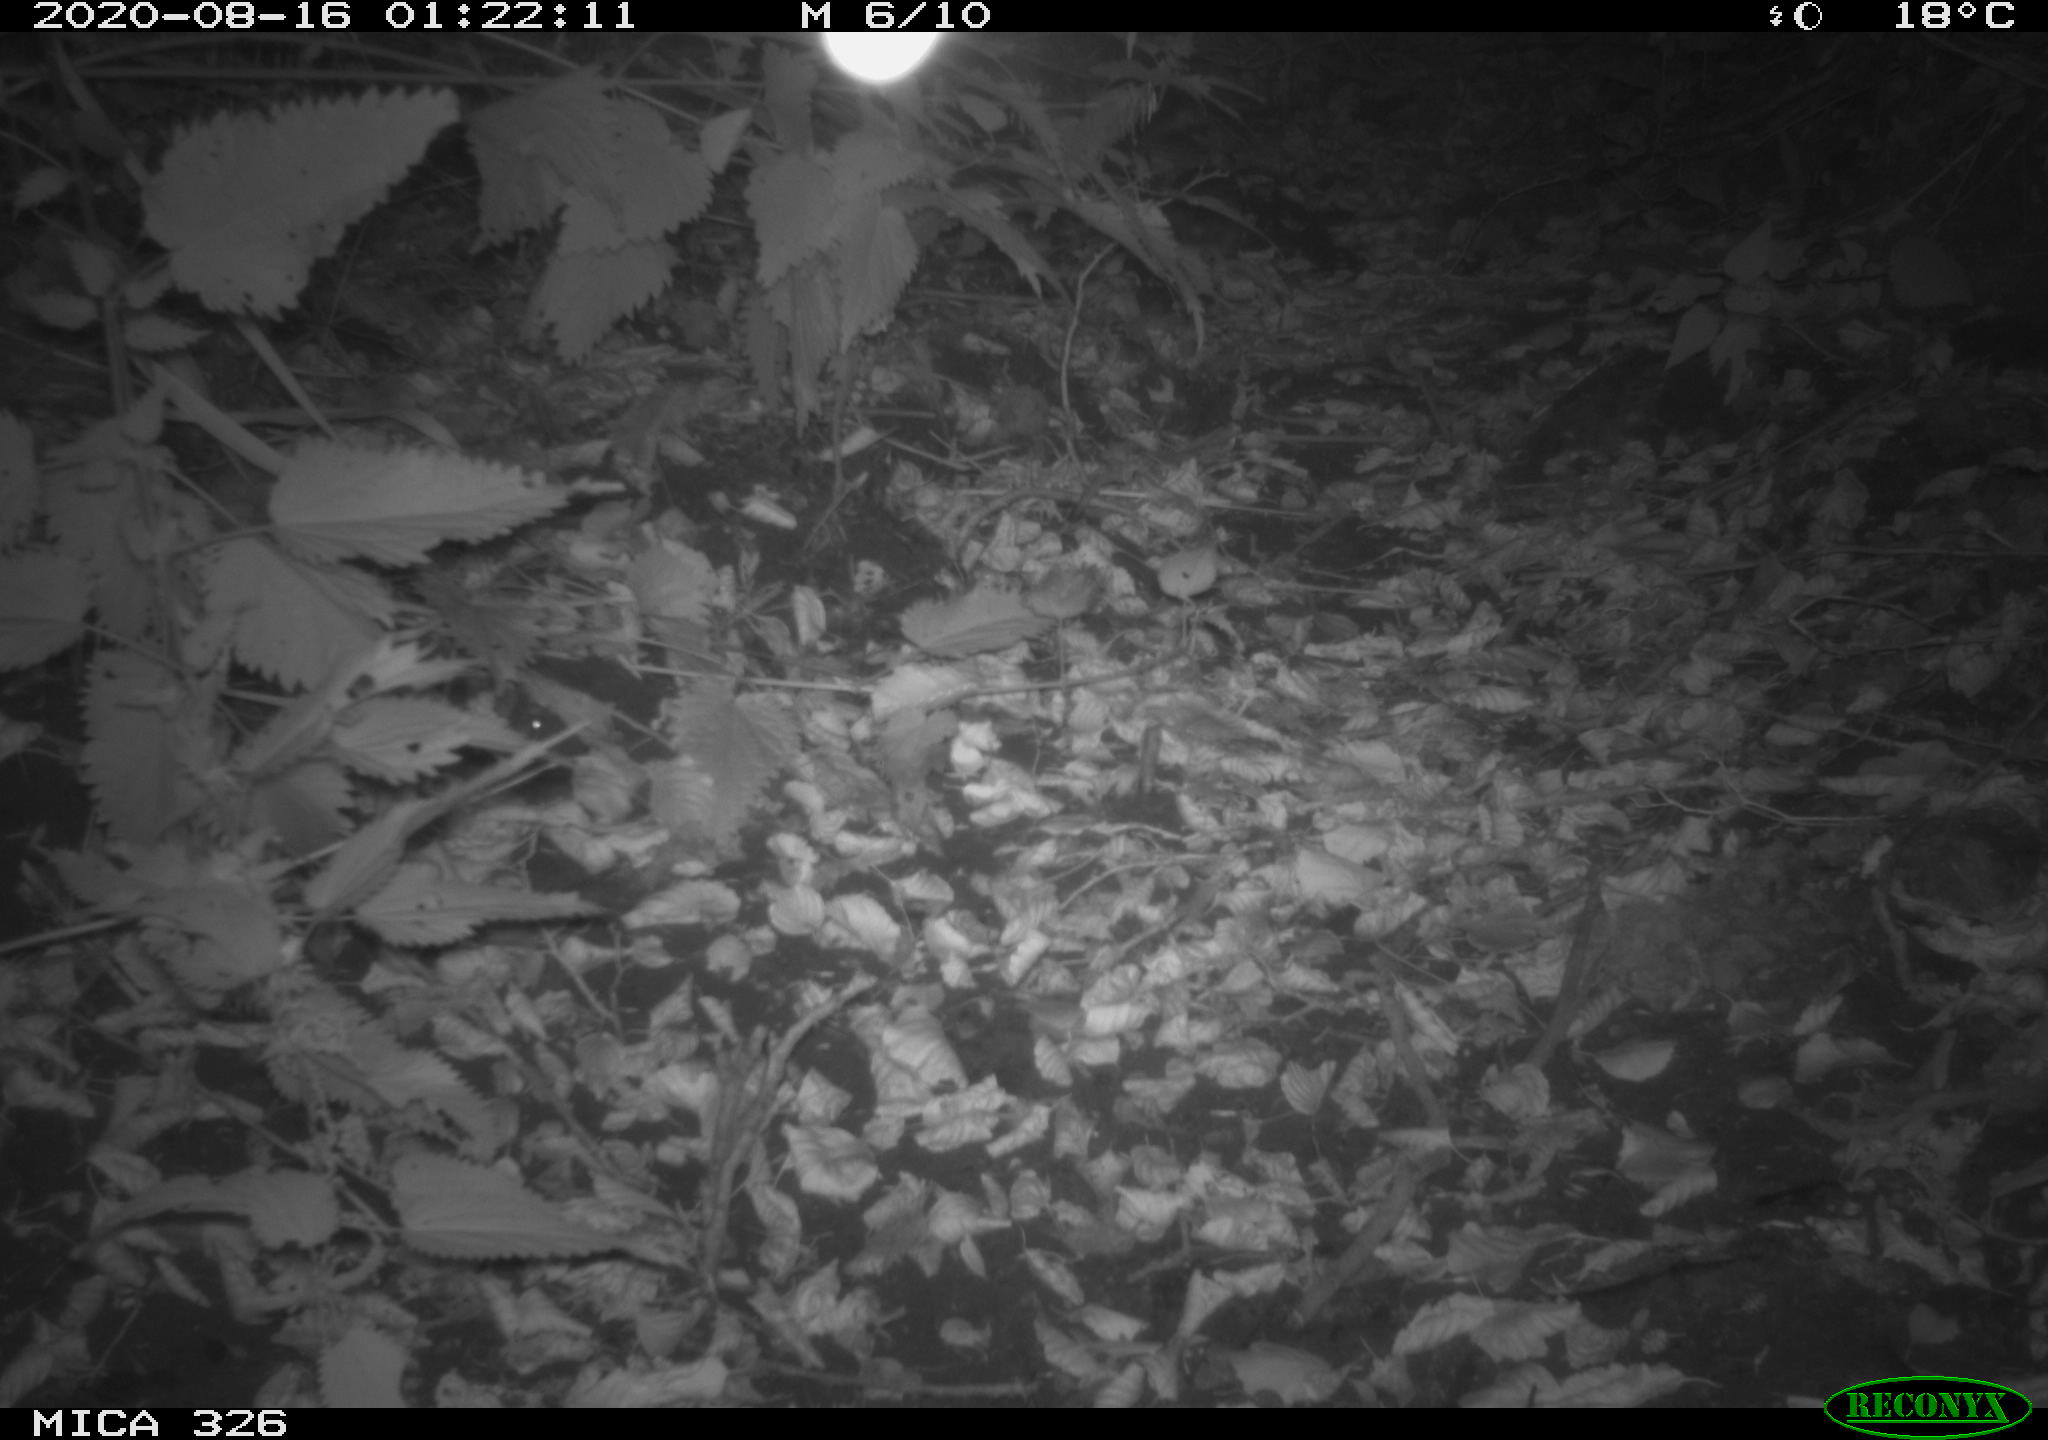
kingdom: Animalia
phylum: Chordata
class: Mammalia
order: Rodentia
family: Muridae
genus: Rattus
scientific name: Rattus norvegicus
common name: Brown rat
